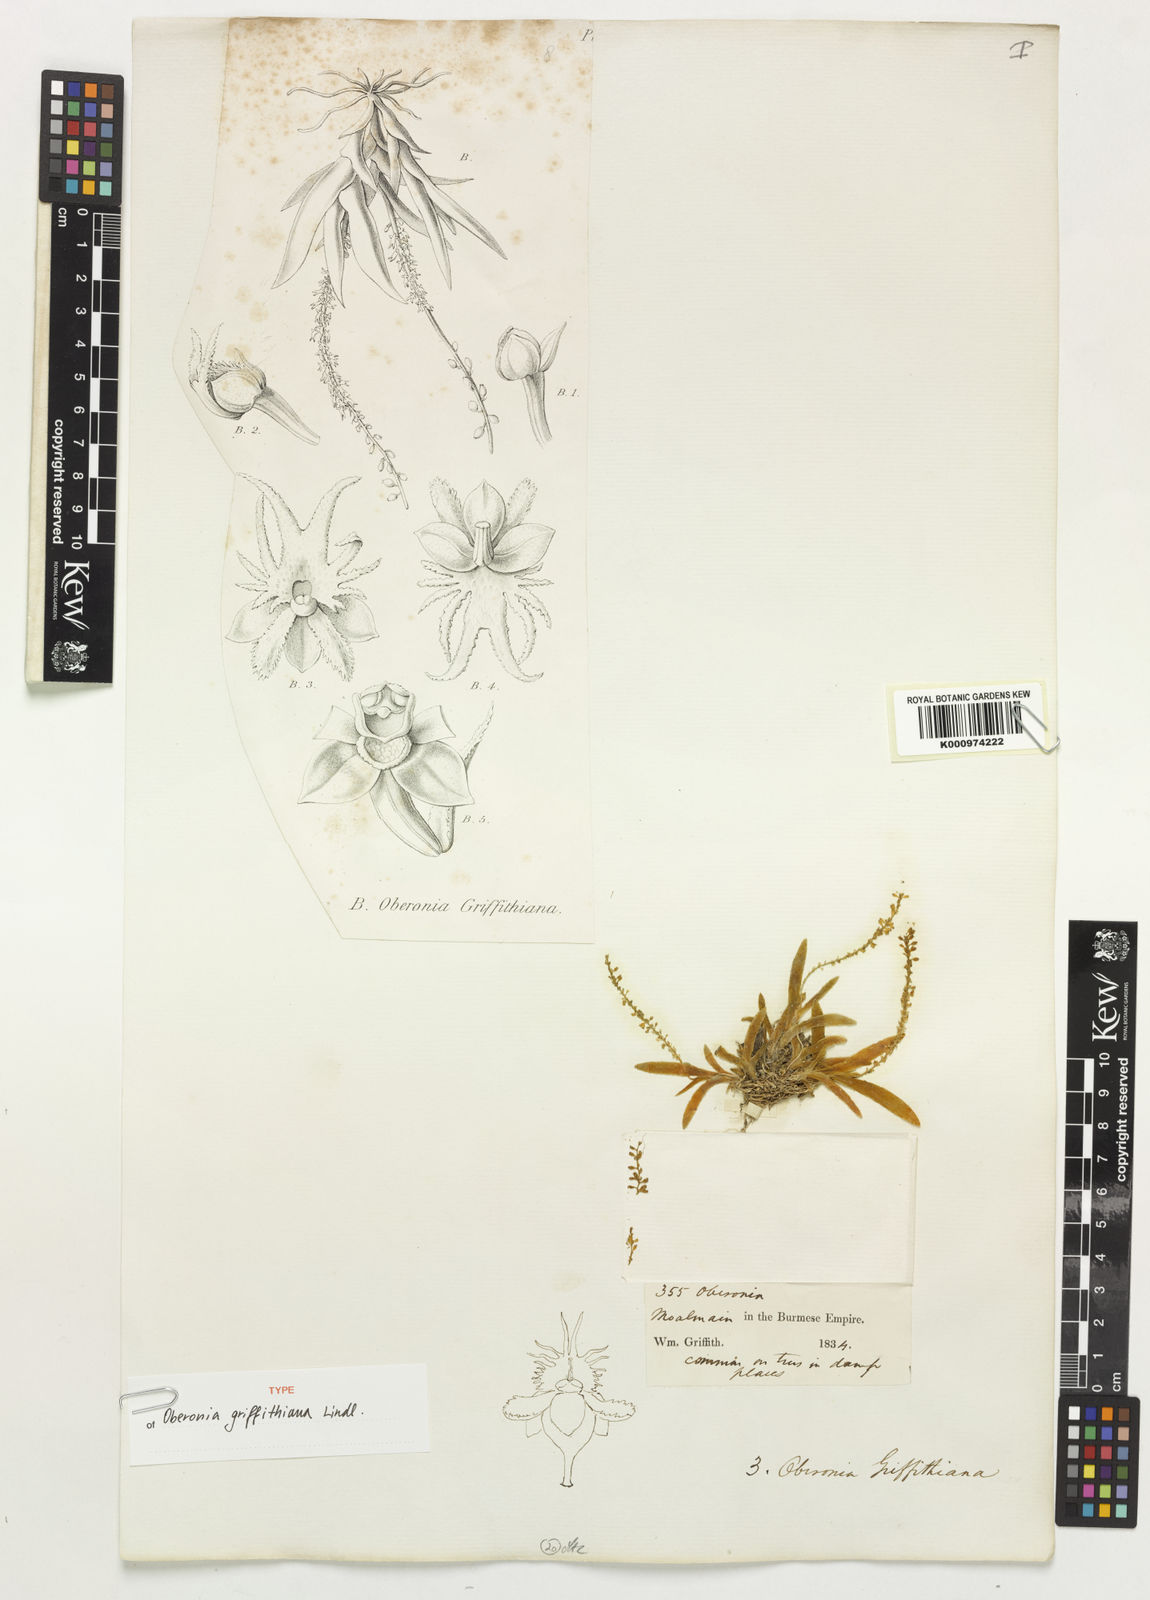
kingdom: Plantae
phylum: Tracheophyta
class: Liliopsida
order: Asparagales
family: Orchidaceae
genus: Oberonia
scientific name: Oberonia griffithiana
